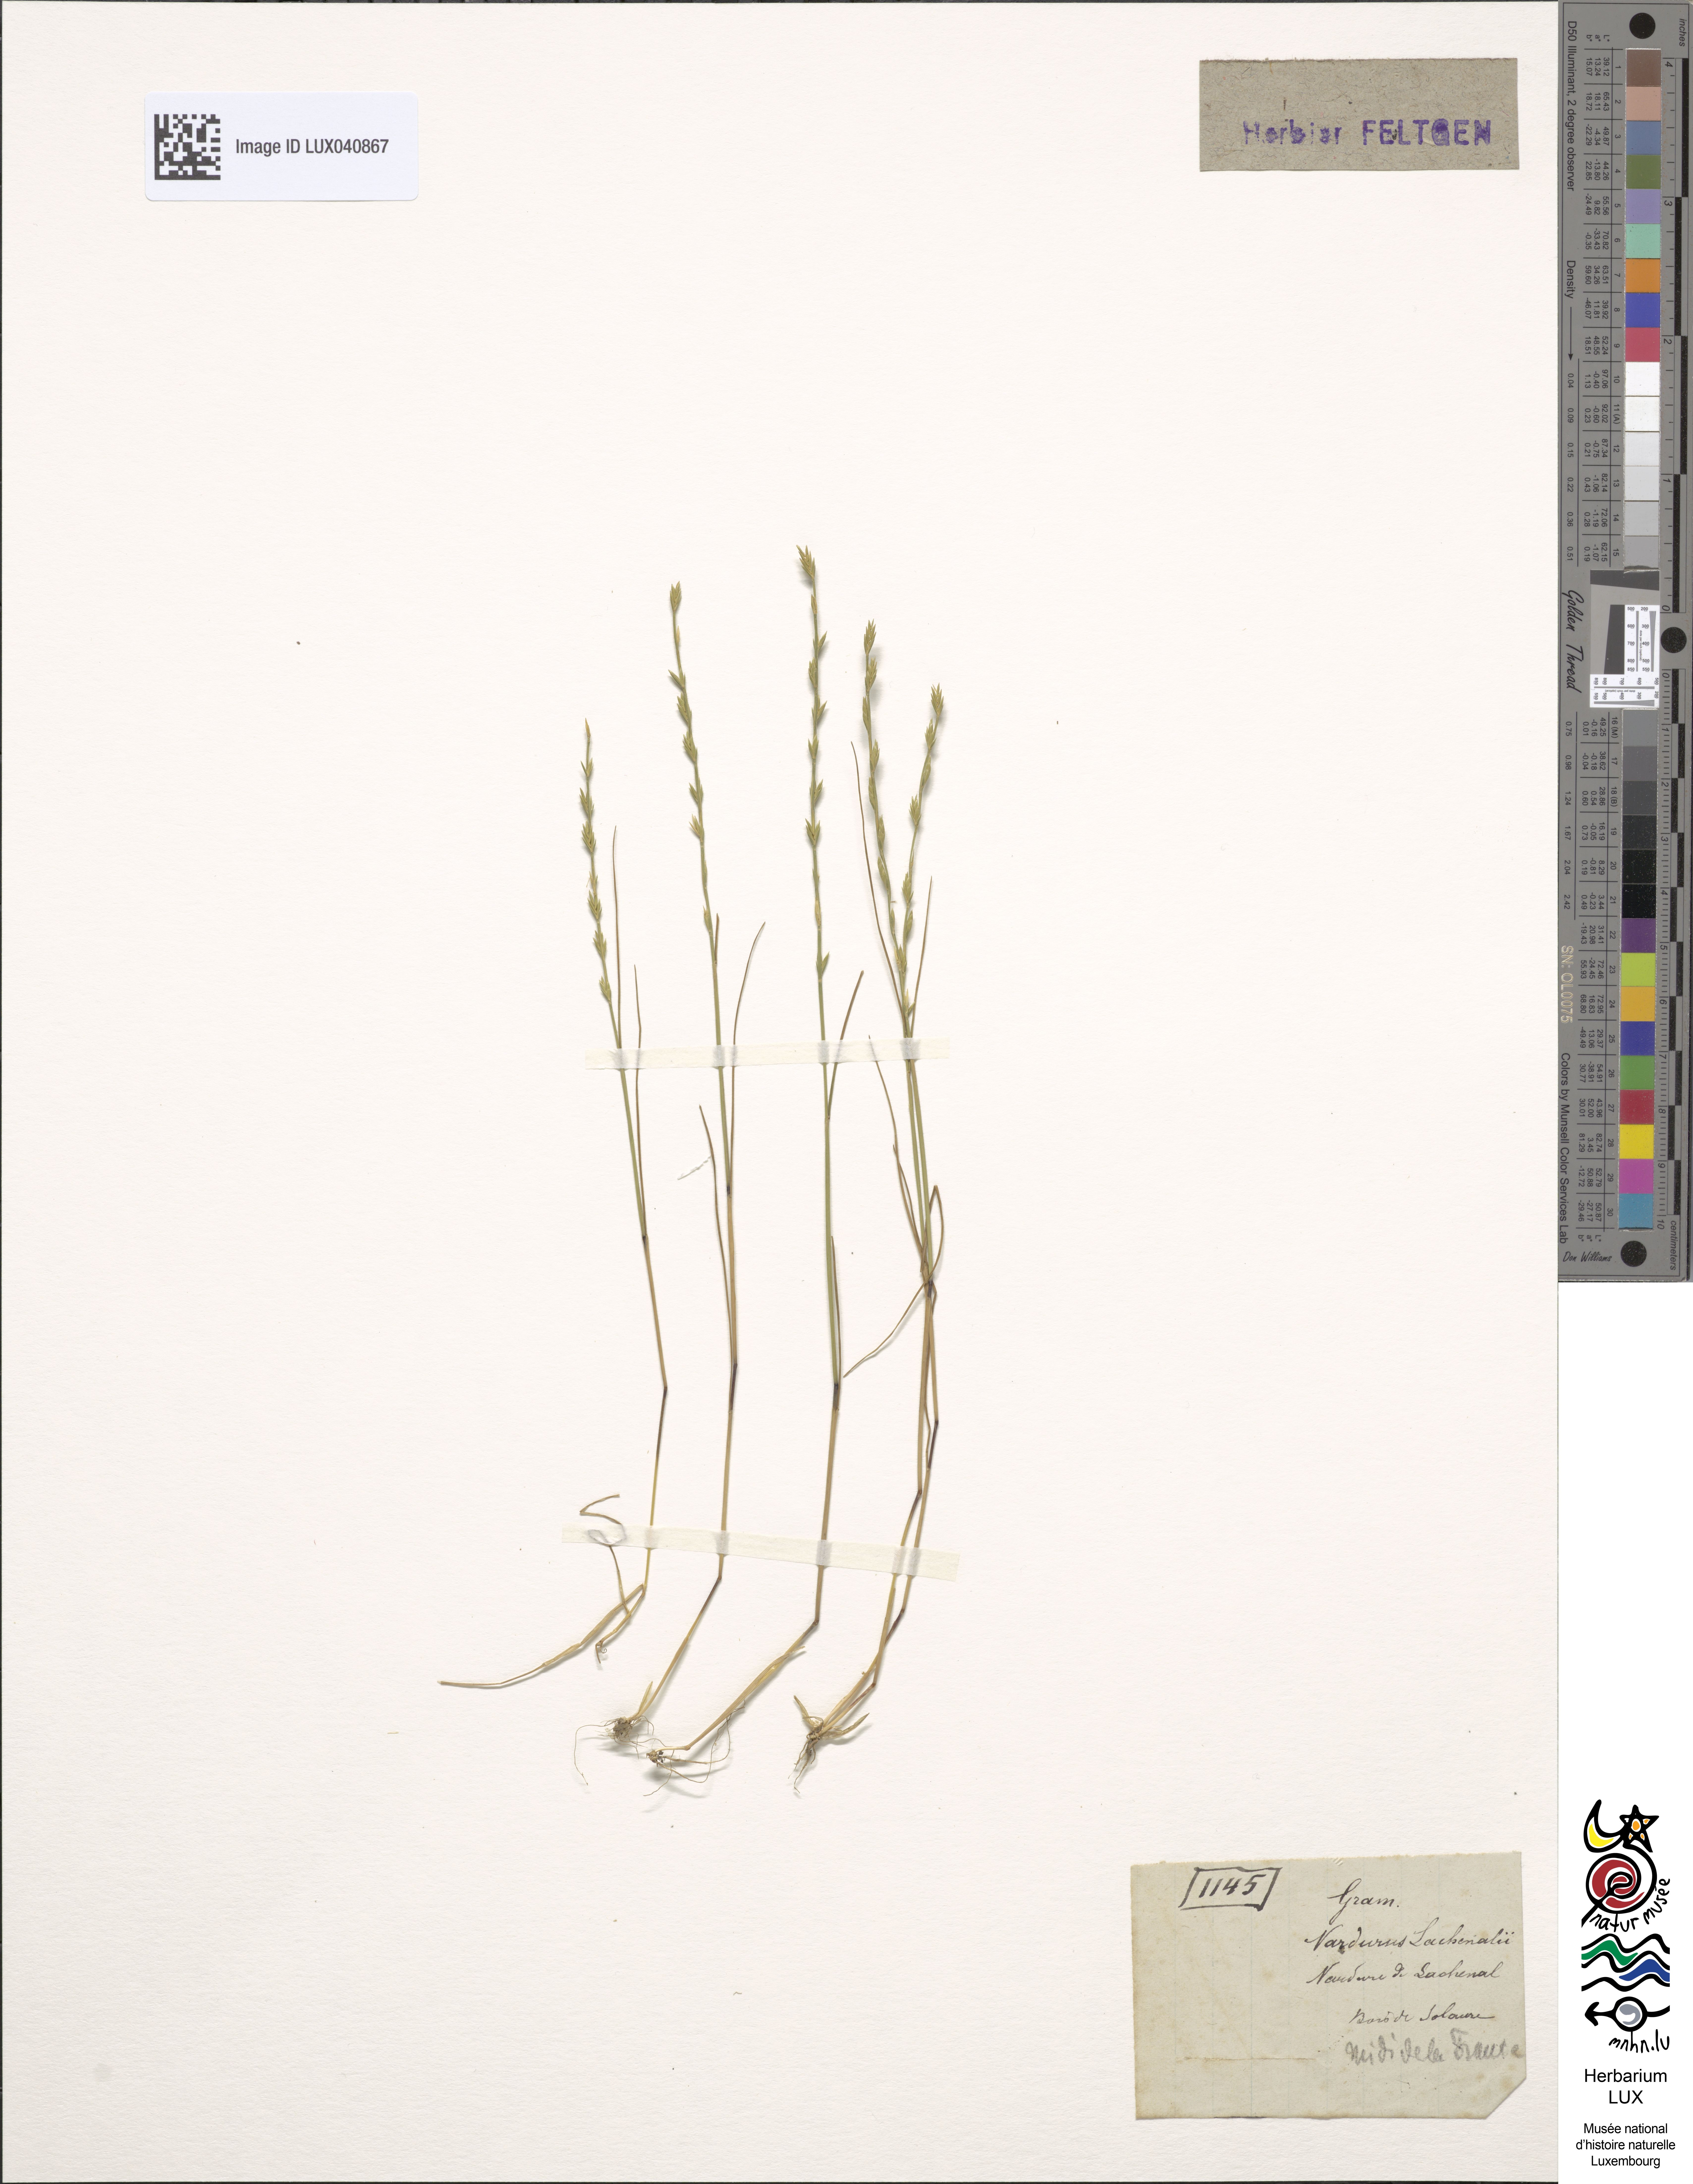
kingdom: Plantae
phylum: Tracheophyta
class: Liliopsida
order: Poales
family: Poaceae
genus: Festuca
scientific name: Festuca lachenalii
